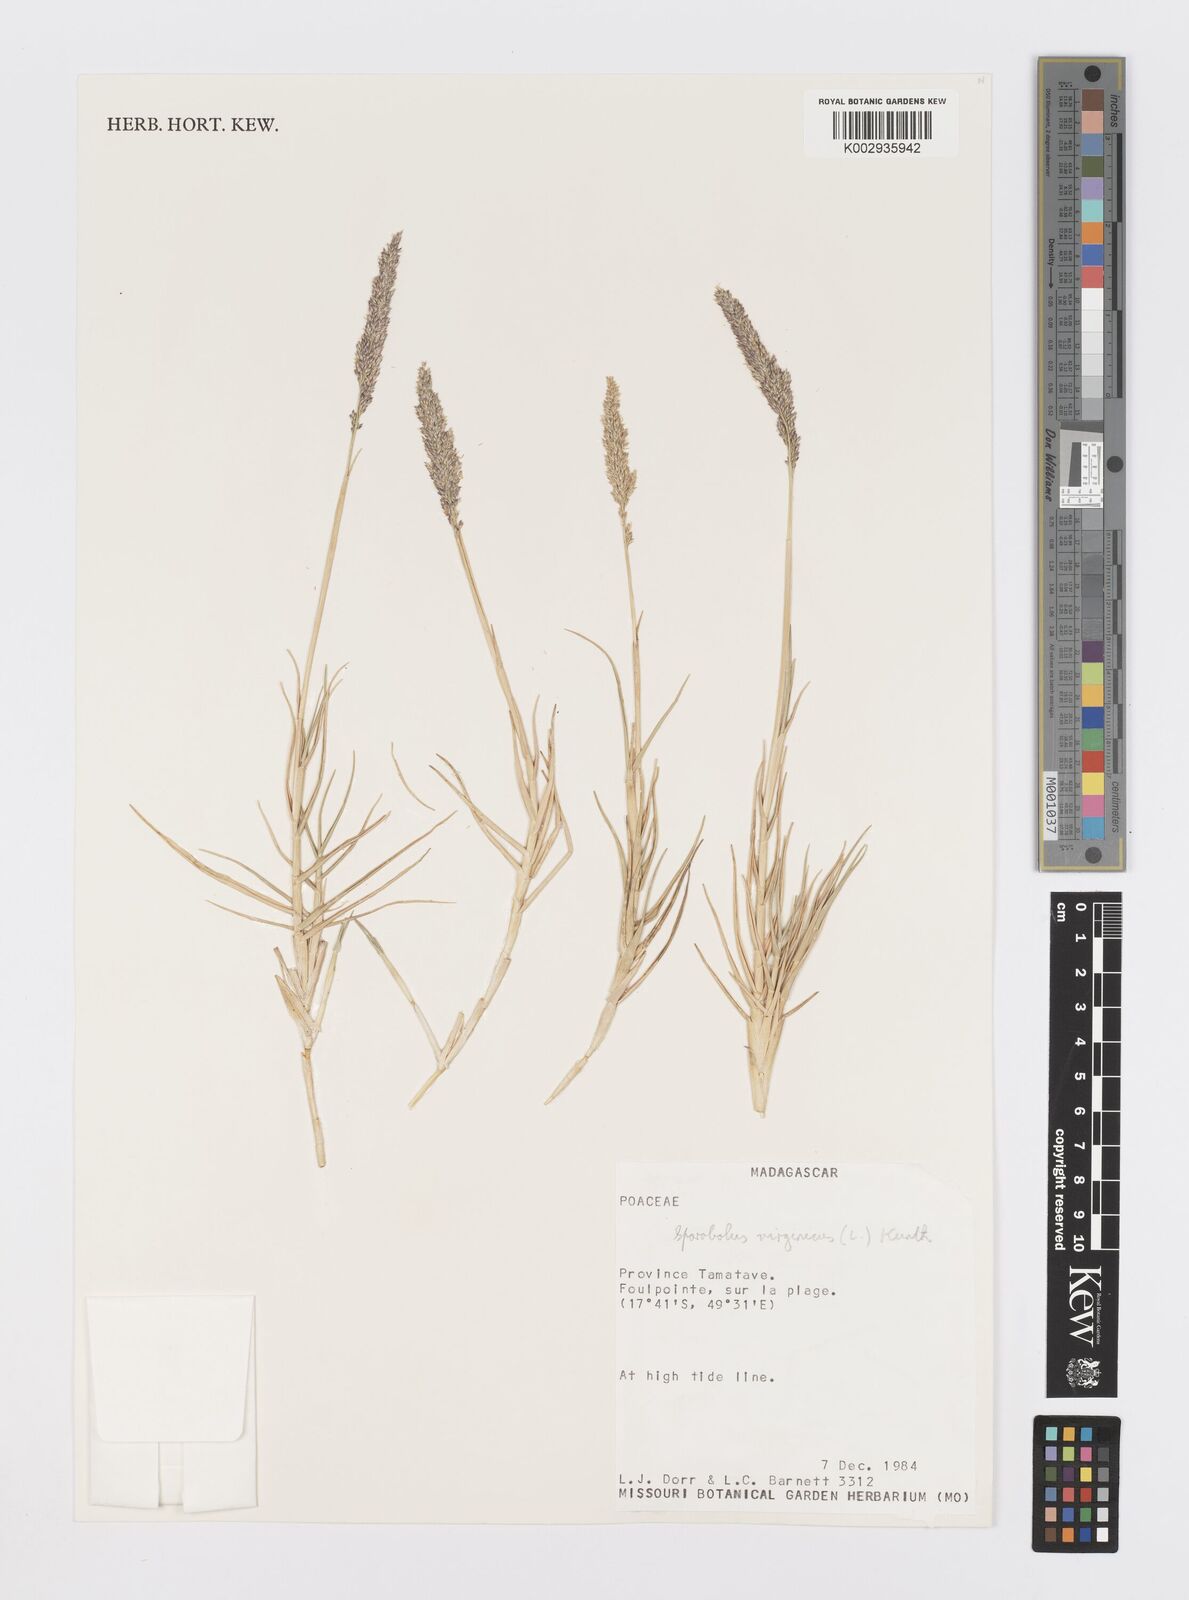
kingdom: Plantae
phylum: Tracheophyta
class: Liliopsida
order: Poales
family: Poaceae
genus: Sporobolus
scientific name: Sporobolus virginicus
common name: Beach dropseed
